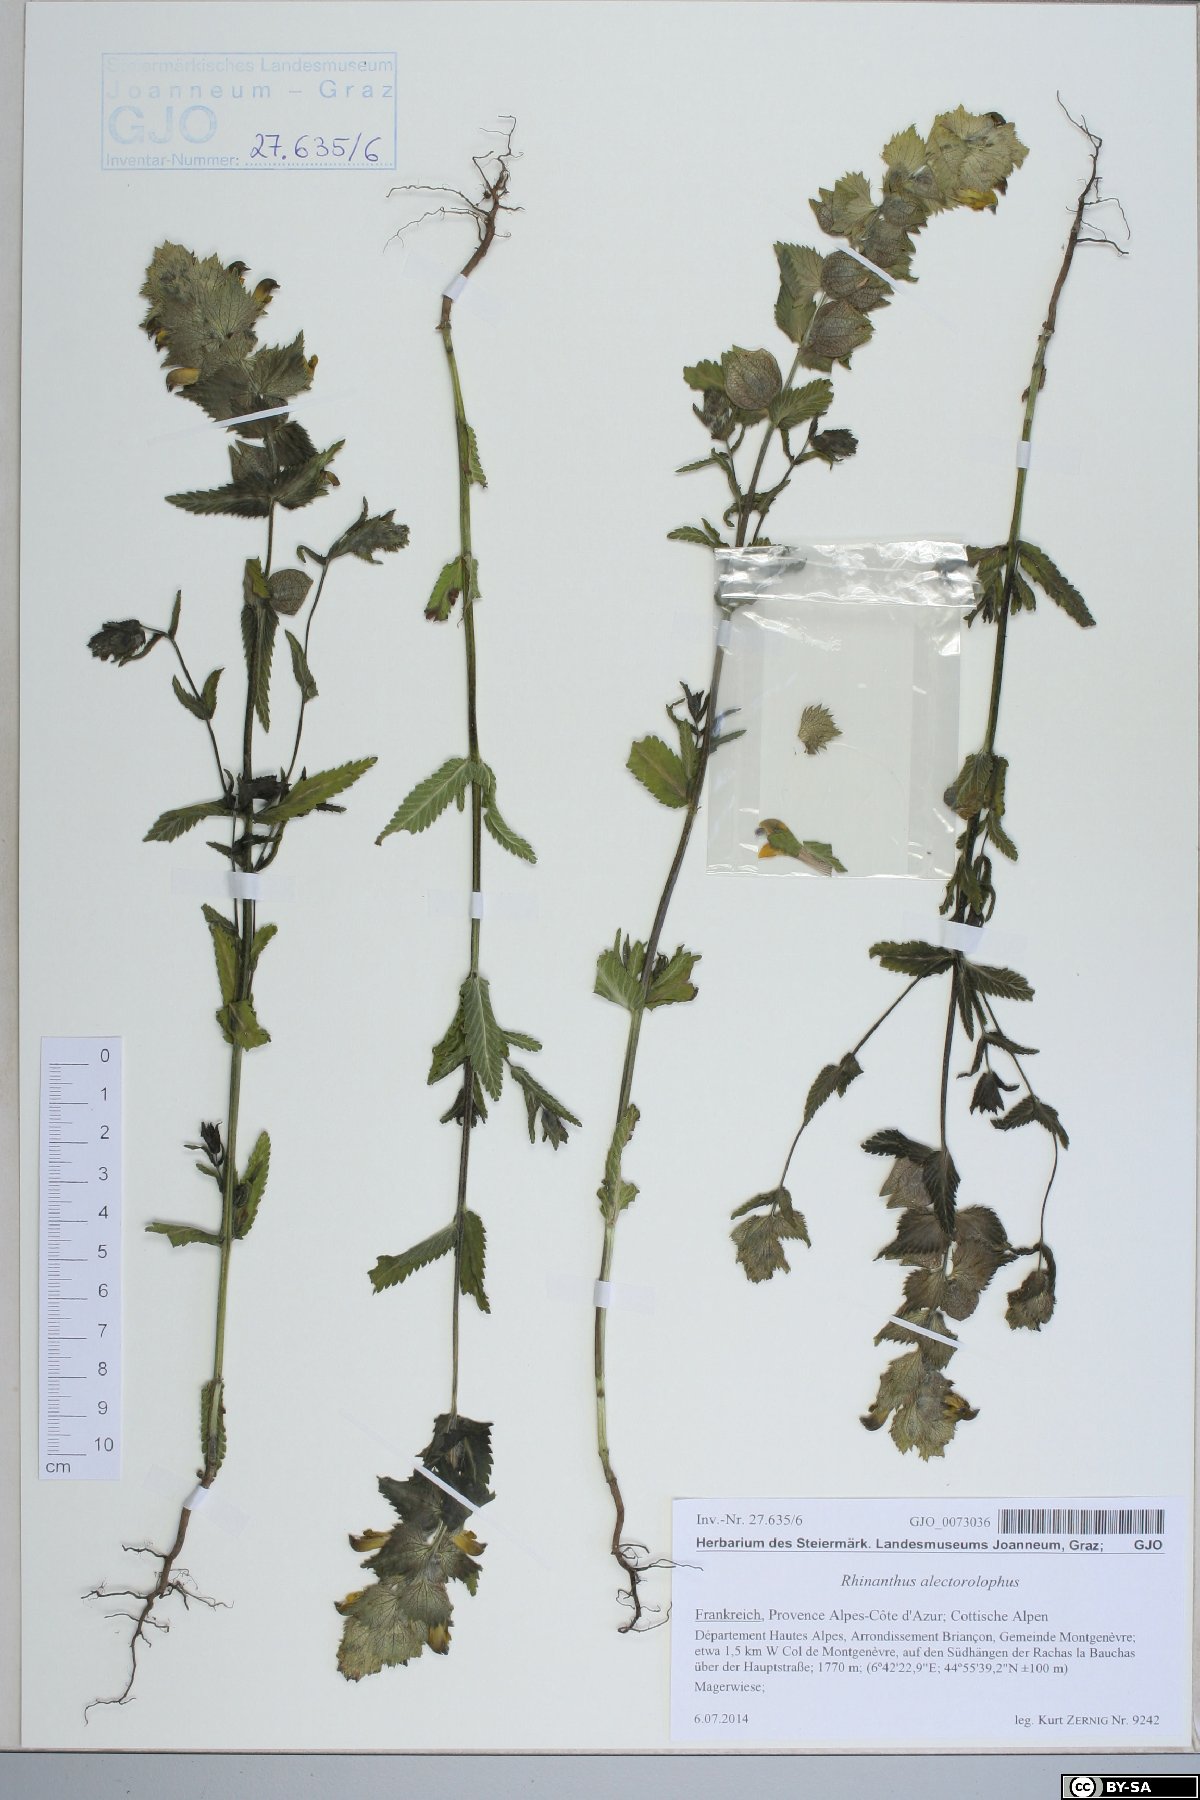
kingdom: Plantae
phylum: Tracheophyta
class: Magnoliopsida
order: Lamiales
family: Orobanchaceae
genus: Rhinanthus
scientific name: Rhinanthus alectorolophus
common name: Greater yellow-rattle
